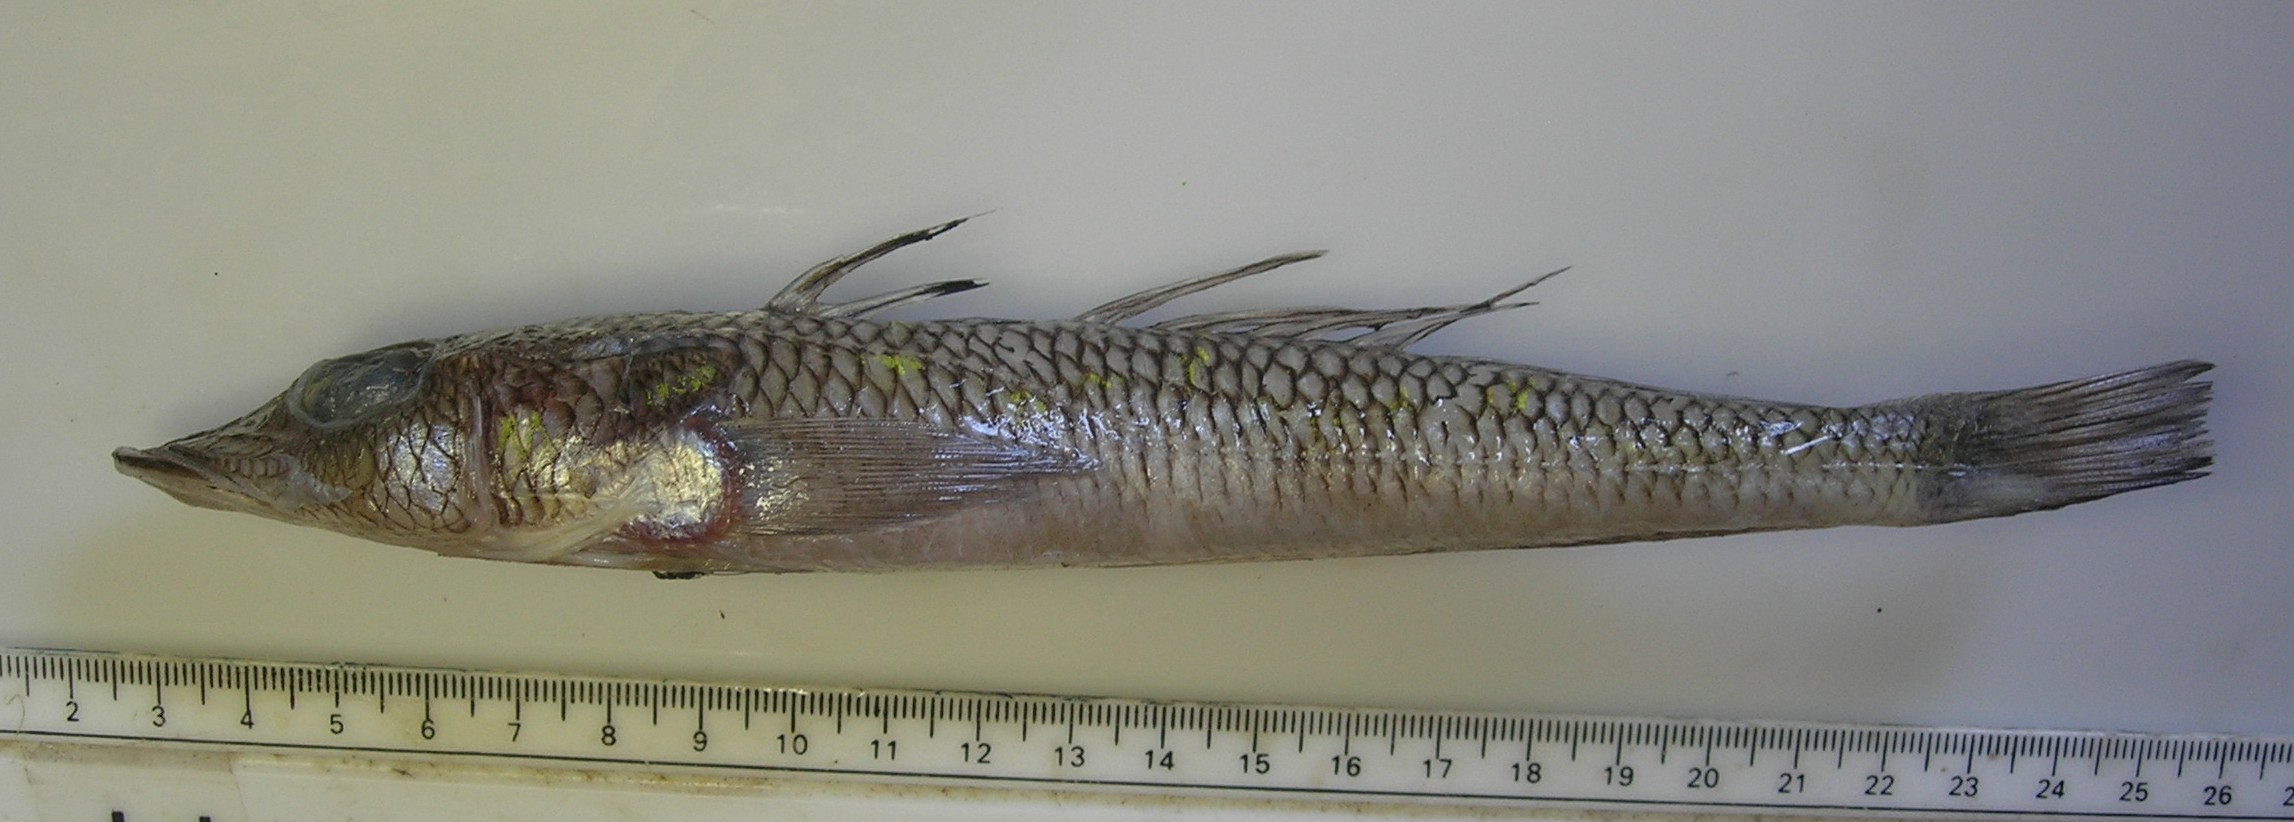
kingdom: Animalia
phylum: Chordata
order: Perciformes
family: Percophidae
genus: Bembrops
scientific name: Bembrops platyrhynchus
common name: Natal duckbill
